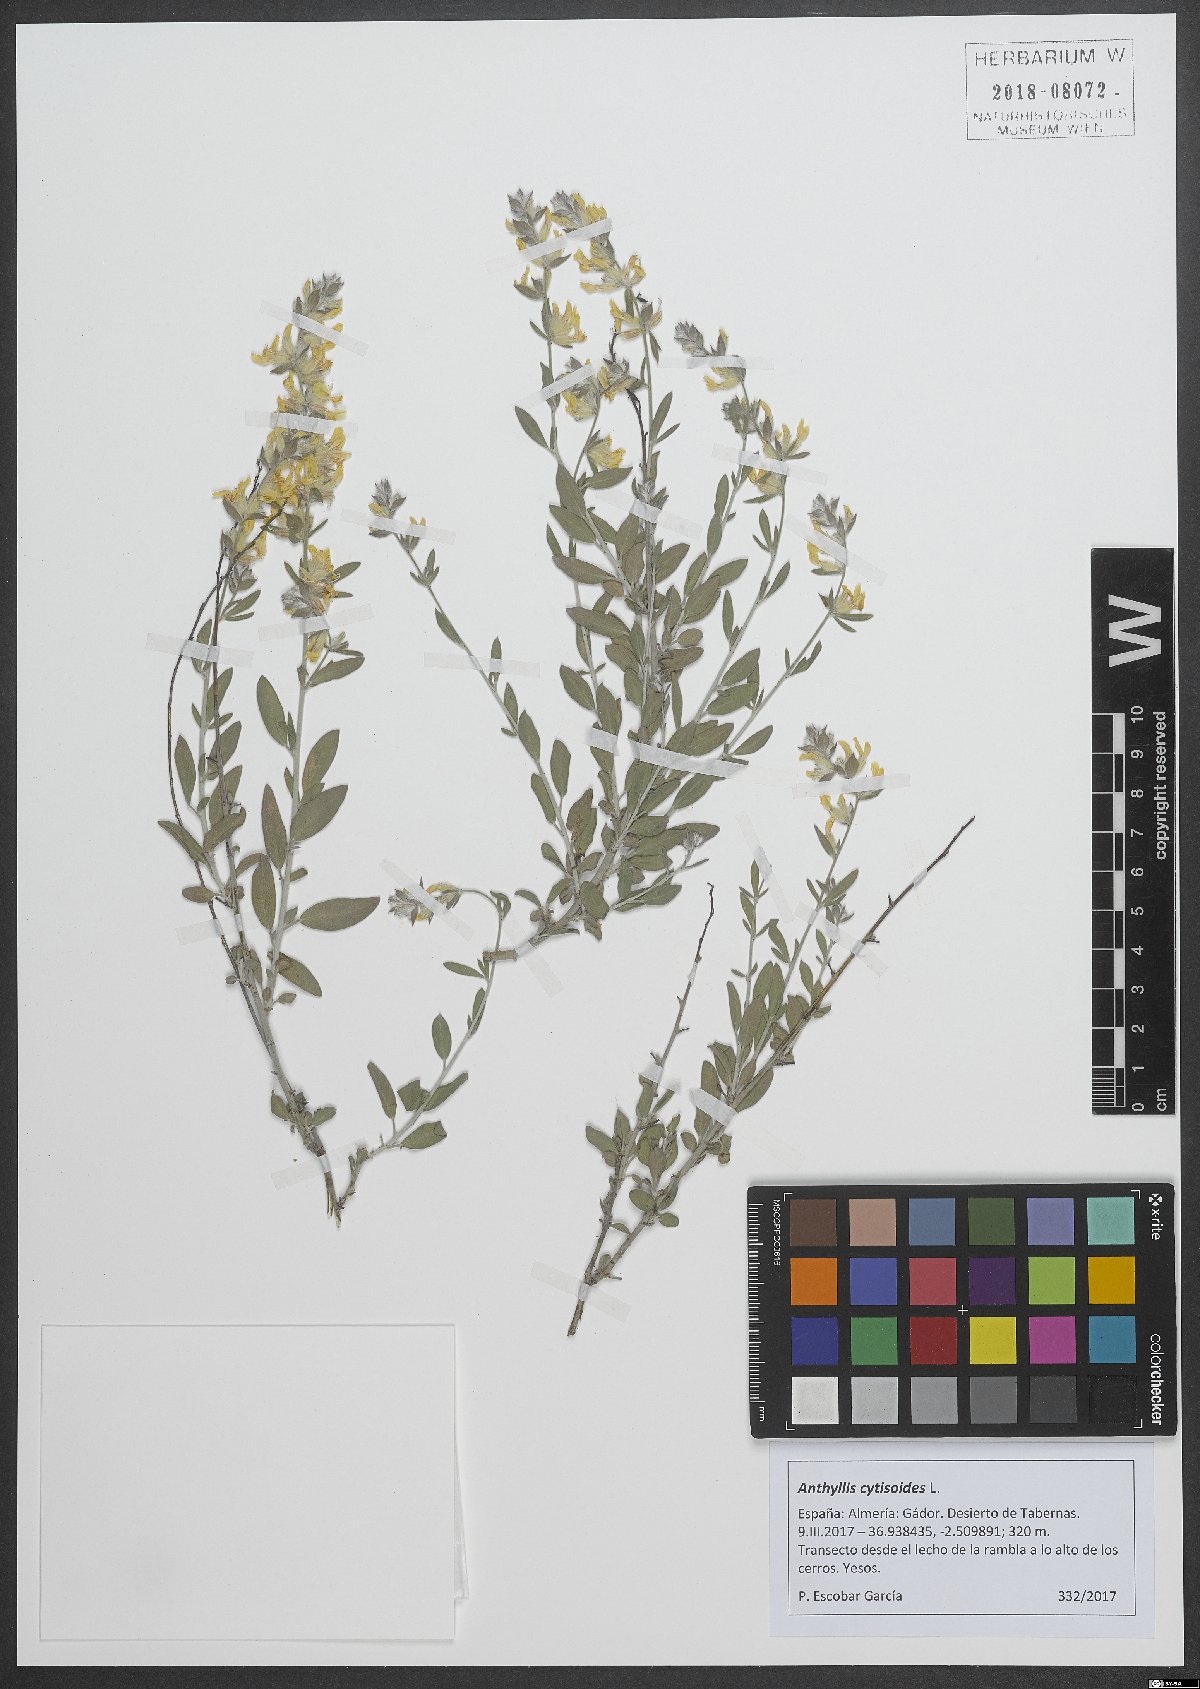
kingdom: Plantae
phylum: Tracheophyta
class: Magnoliopsida
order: Fabales
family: Fabaceae
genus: Anthyllis
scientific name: Anthyllis cytisoides
